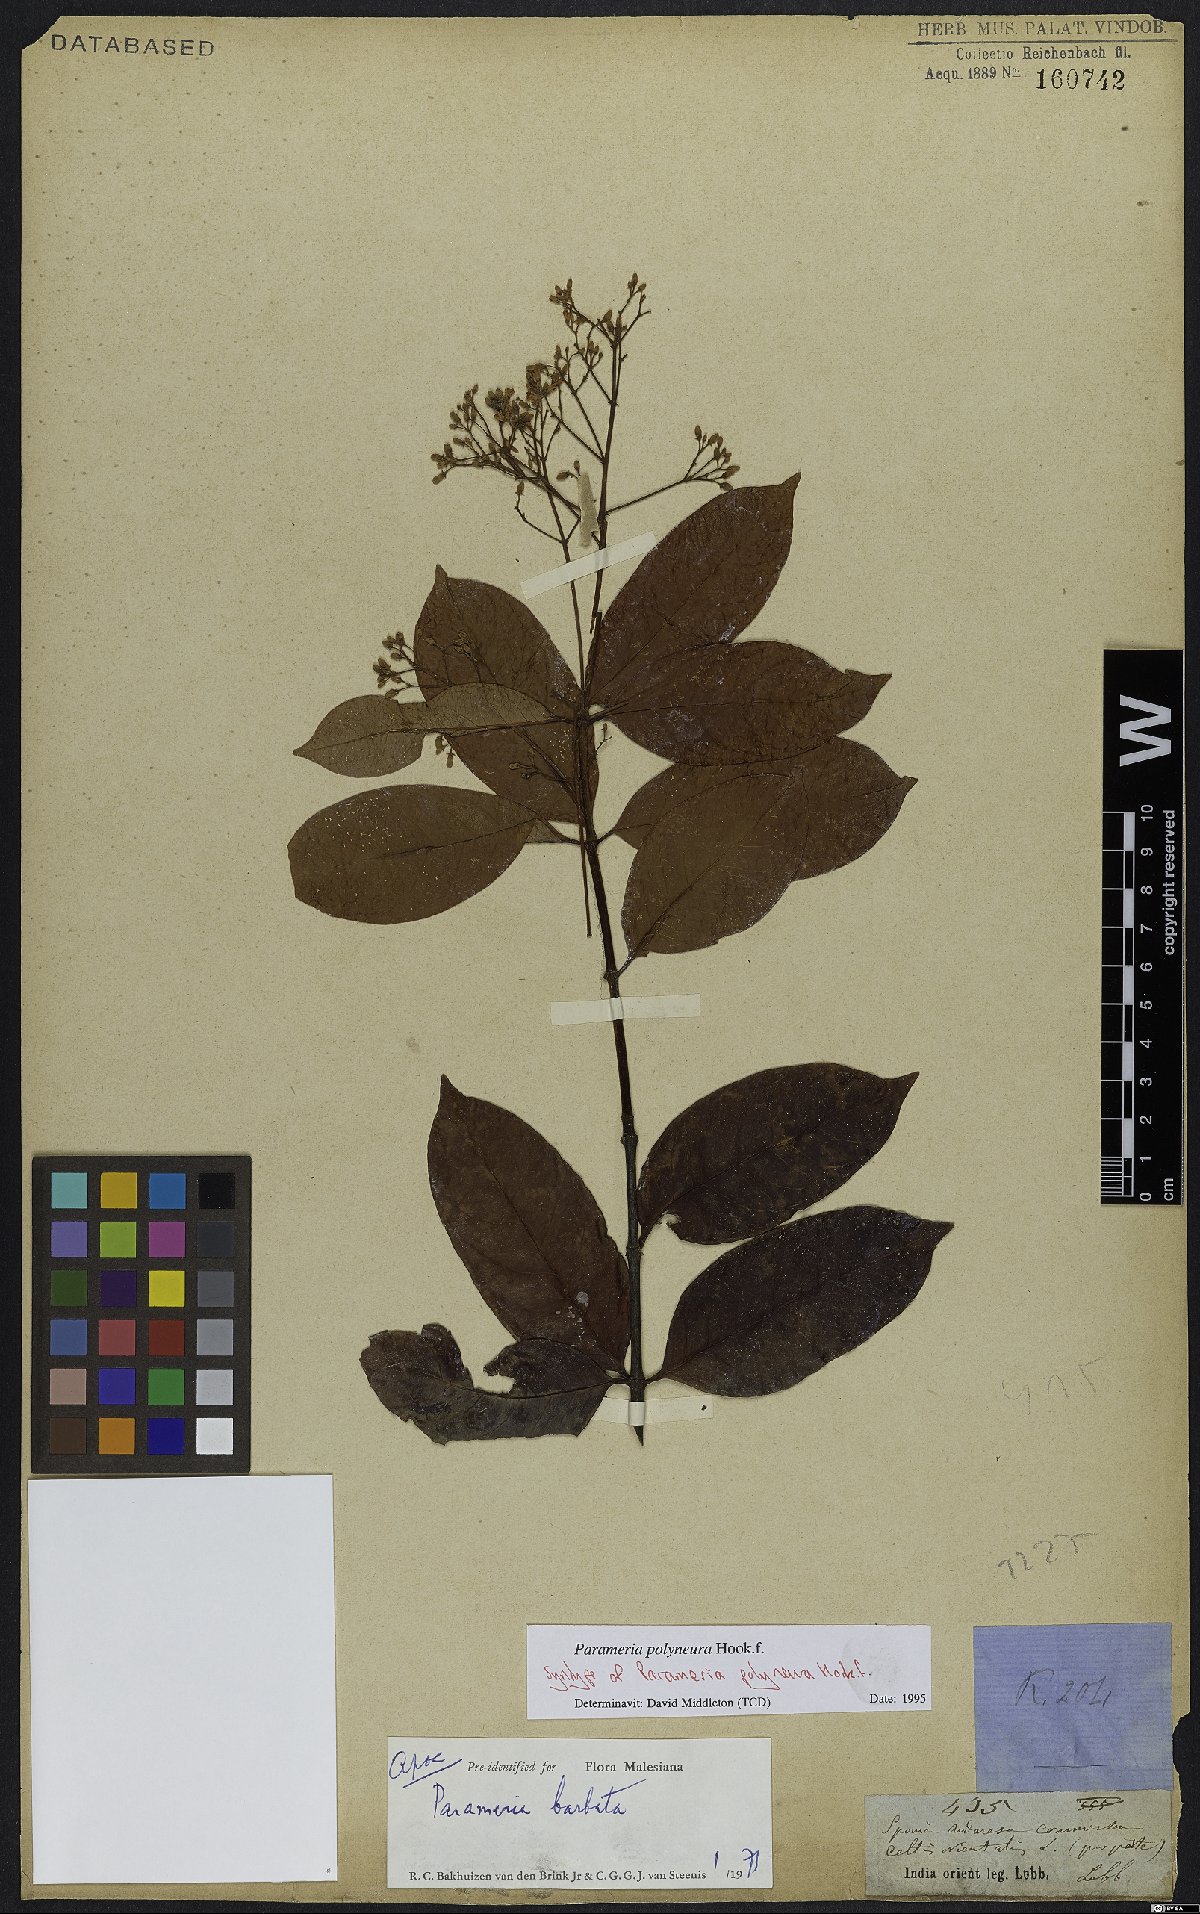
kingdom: Plantae
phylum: Tracheophyta
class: Magnoliopsida
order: Gentianales
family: Apocynaceae
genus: Urceola
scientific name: Urceola polyneura
